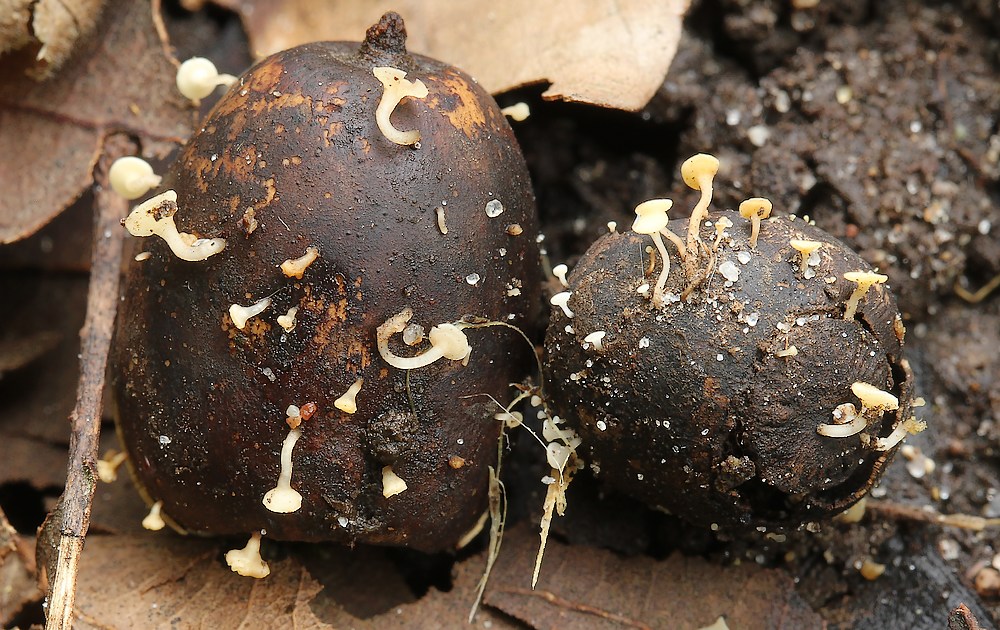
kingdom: Fungi
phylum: Ascomycota
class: Leotiomycetes
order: Helotiales
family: Helotiaceae
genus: Hymenoscyphus
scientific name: Hymenoscyphus fructigenus
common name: frugt-stilkskive
